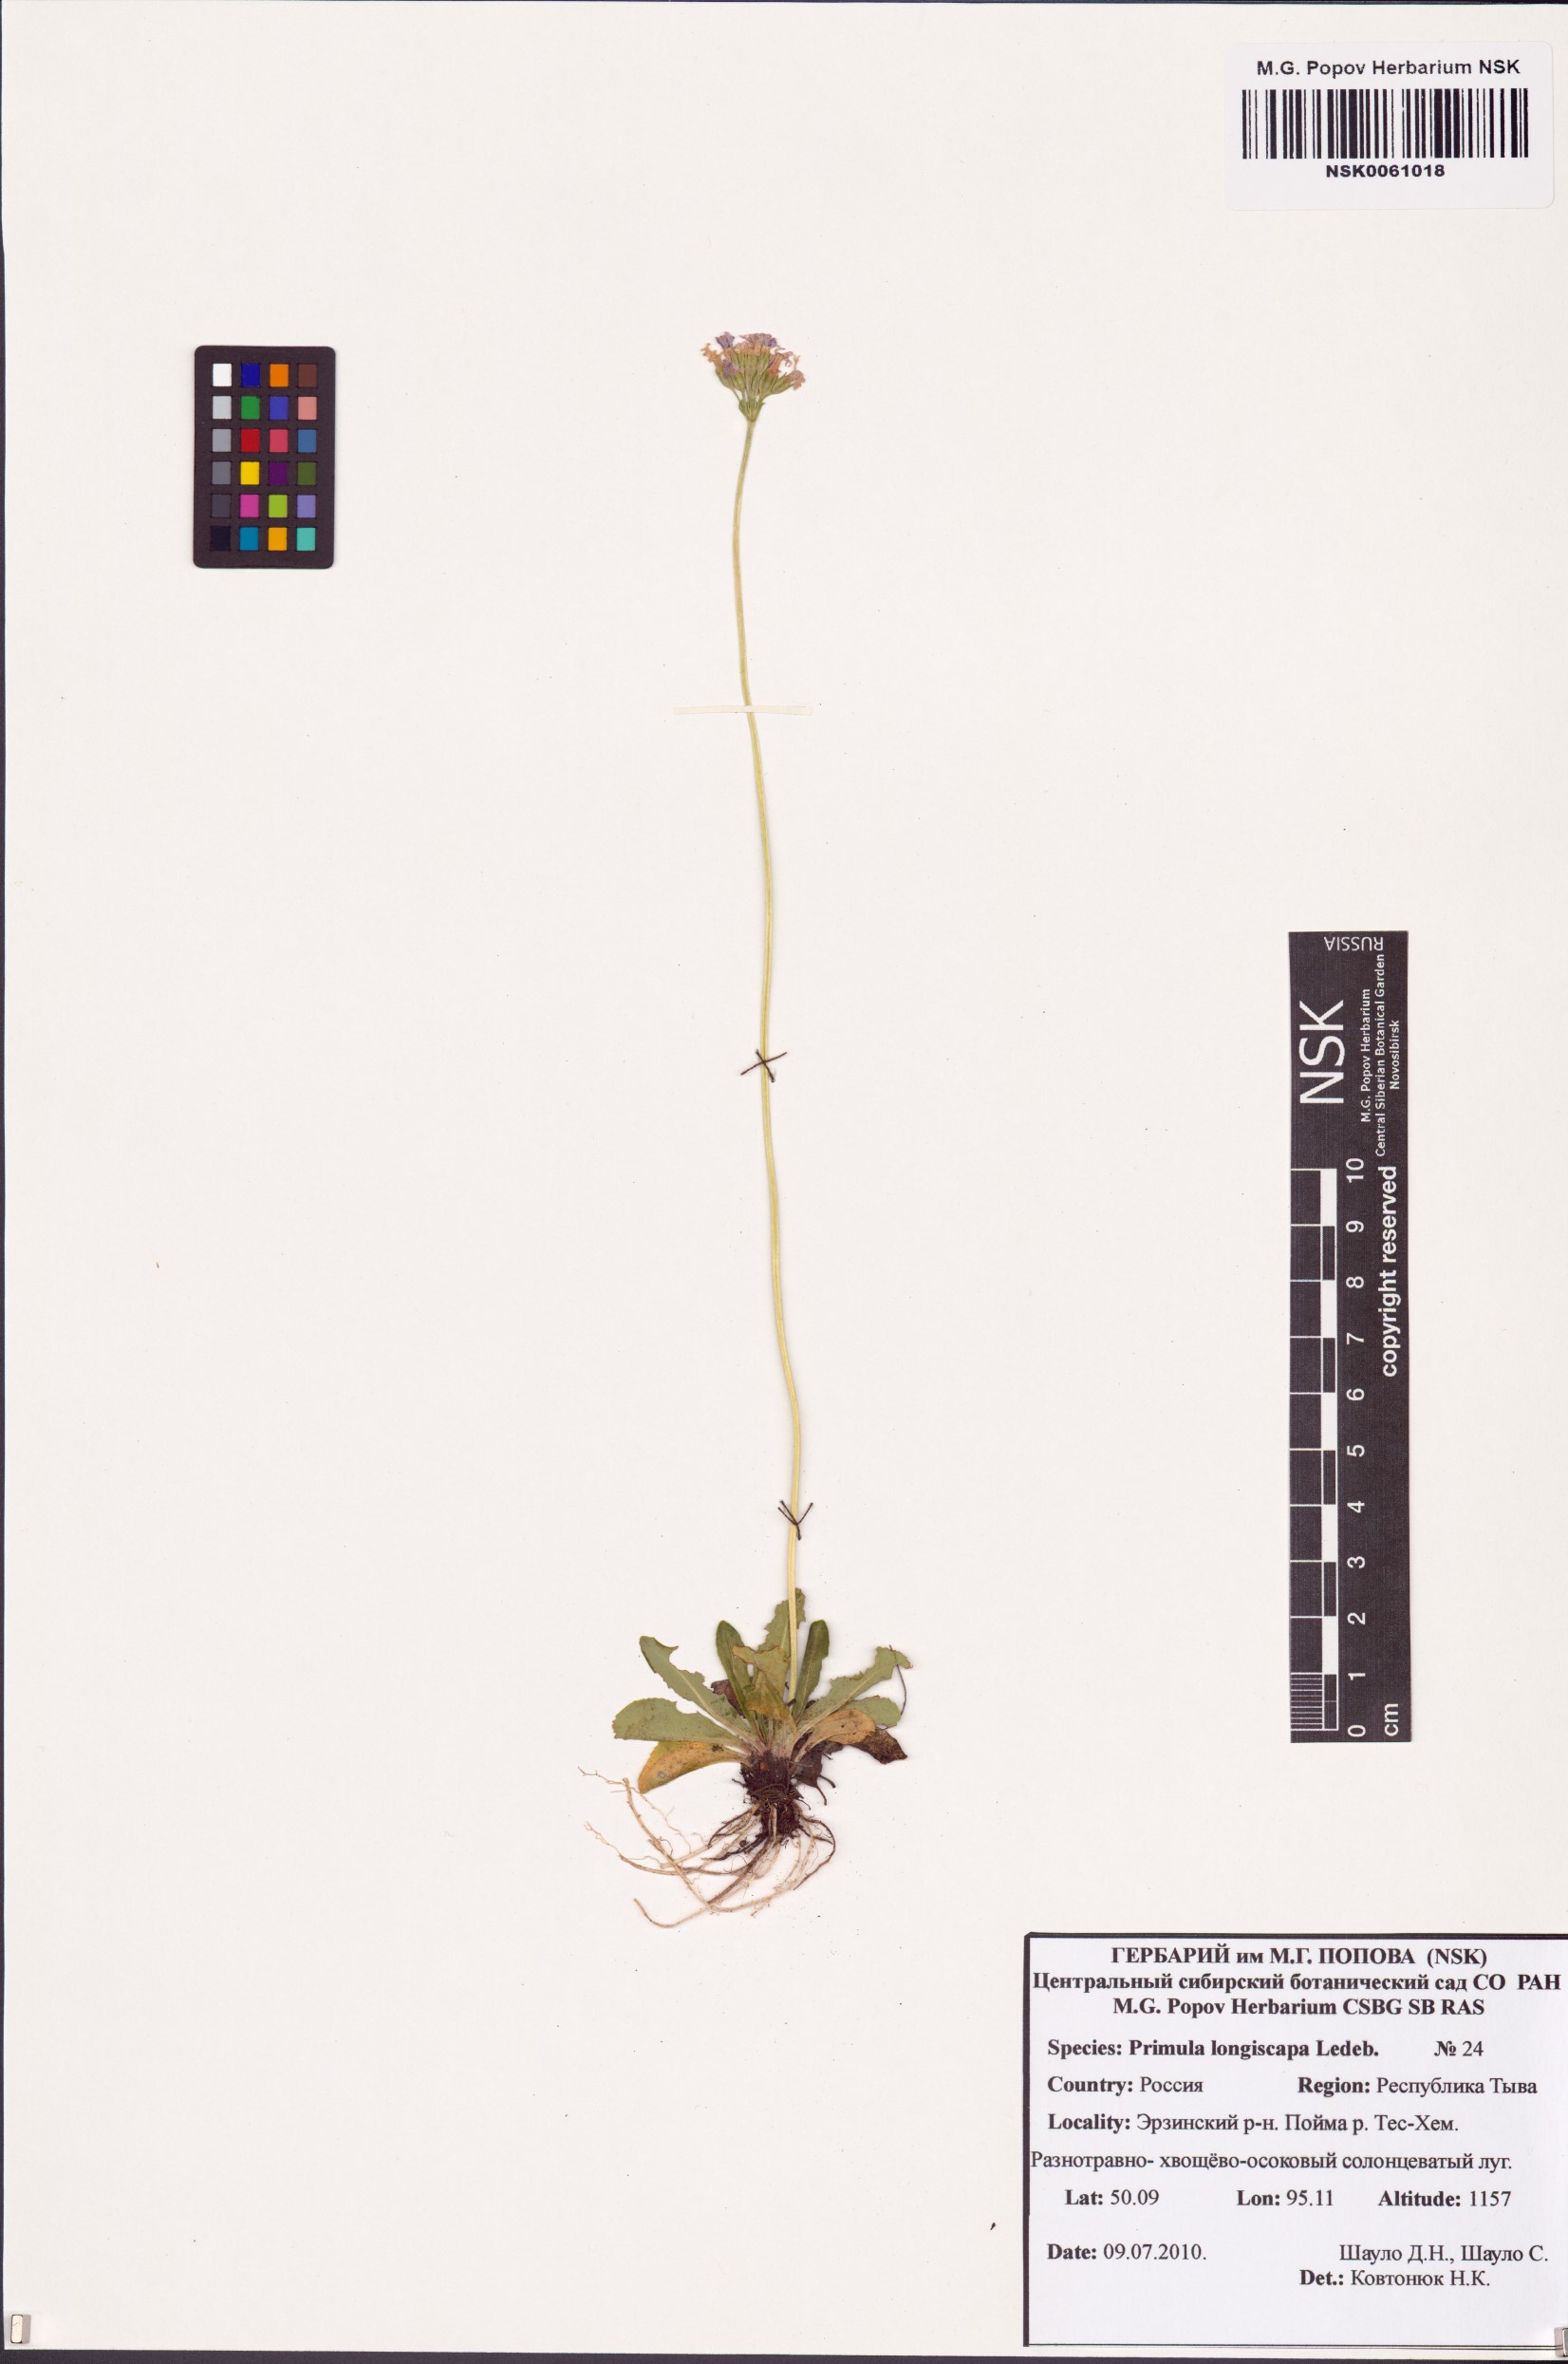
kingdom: Plantae
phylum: Tracheophyta
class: Magnoliopsida
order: Ericales
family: Primulaceae
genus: Primula
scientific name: Primula longiscapa
